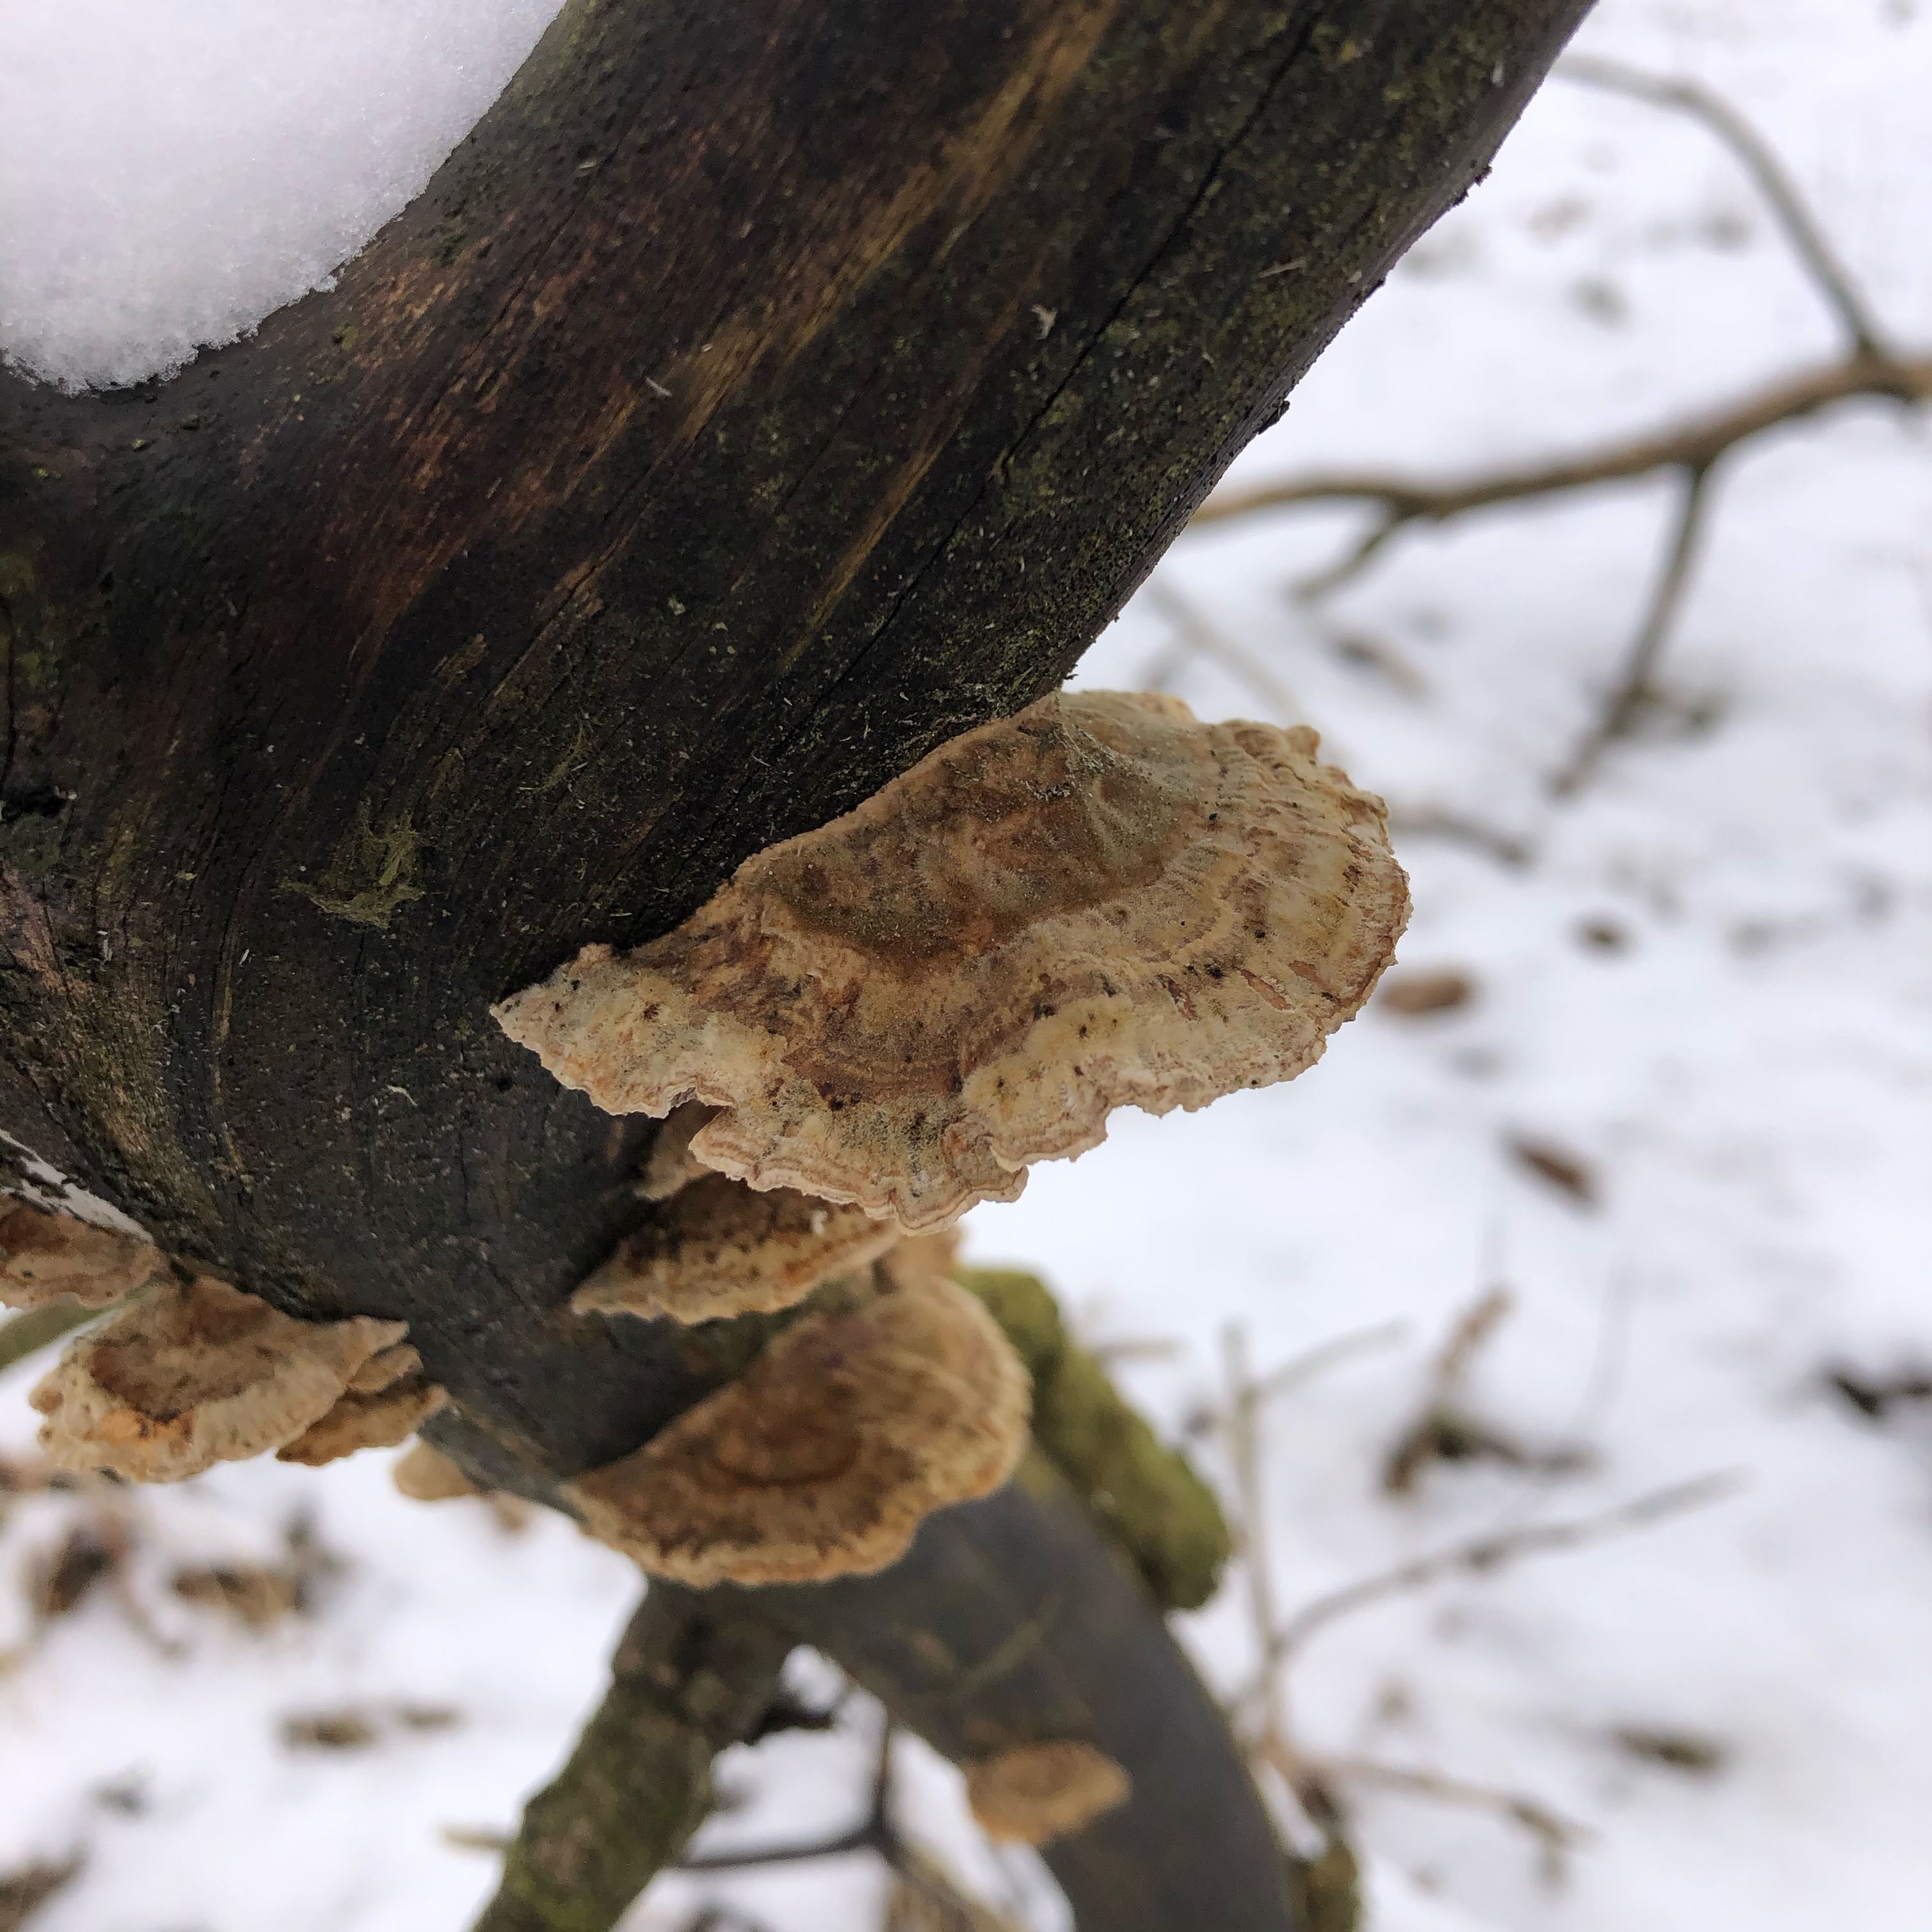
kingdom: Fungi
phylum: Basidiomycota
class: Agaricomycetes
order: Polyporales
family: Polyporaceae
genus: Trametes
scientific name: Trametes ochracea
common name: bæltet læderporesvamp
